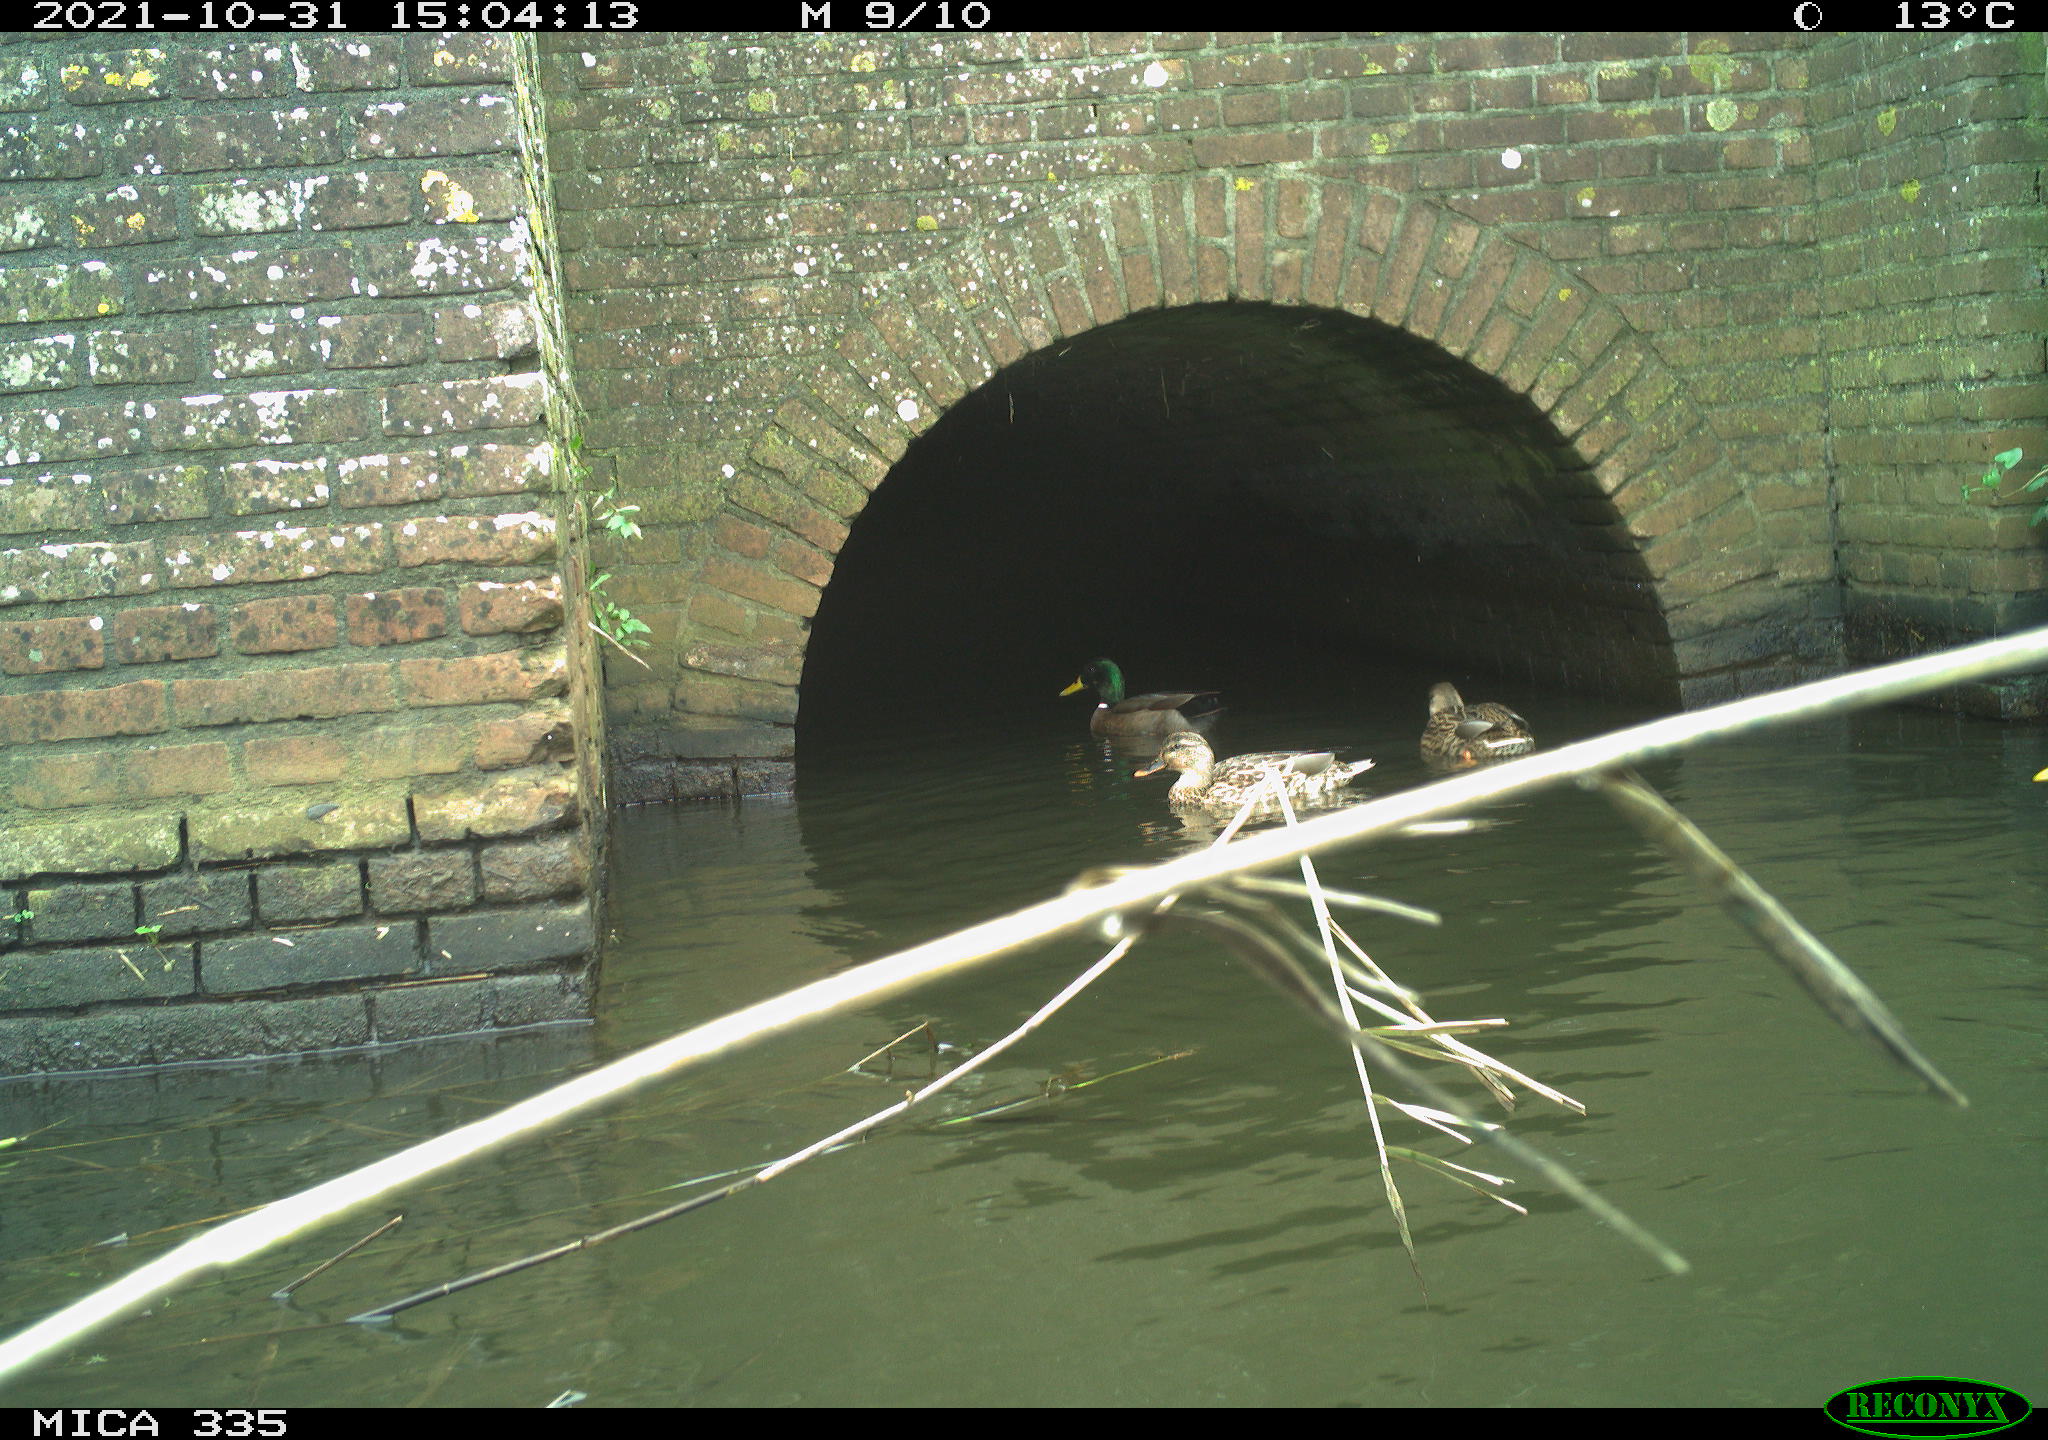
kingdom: Animalia
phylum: Chordata
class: Aves
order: Anseriformes
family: Anatidae
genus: Anas
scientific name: Anas platyrhynchos
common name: Mallard
